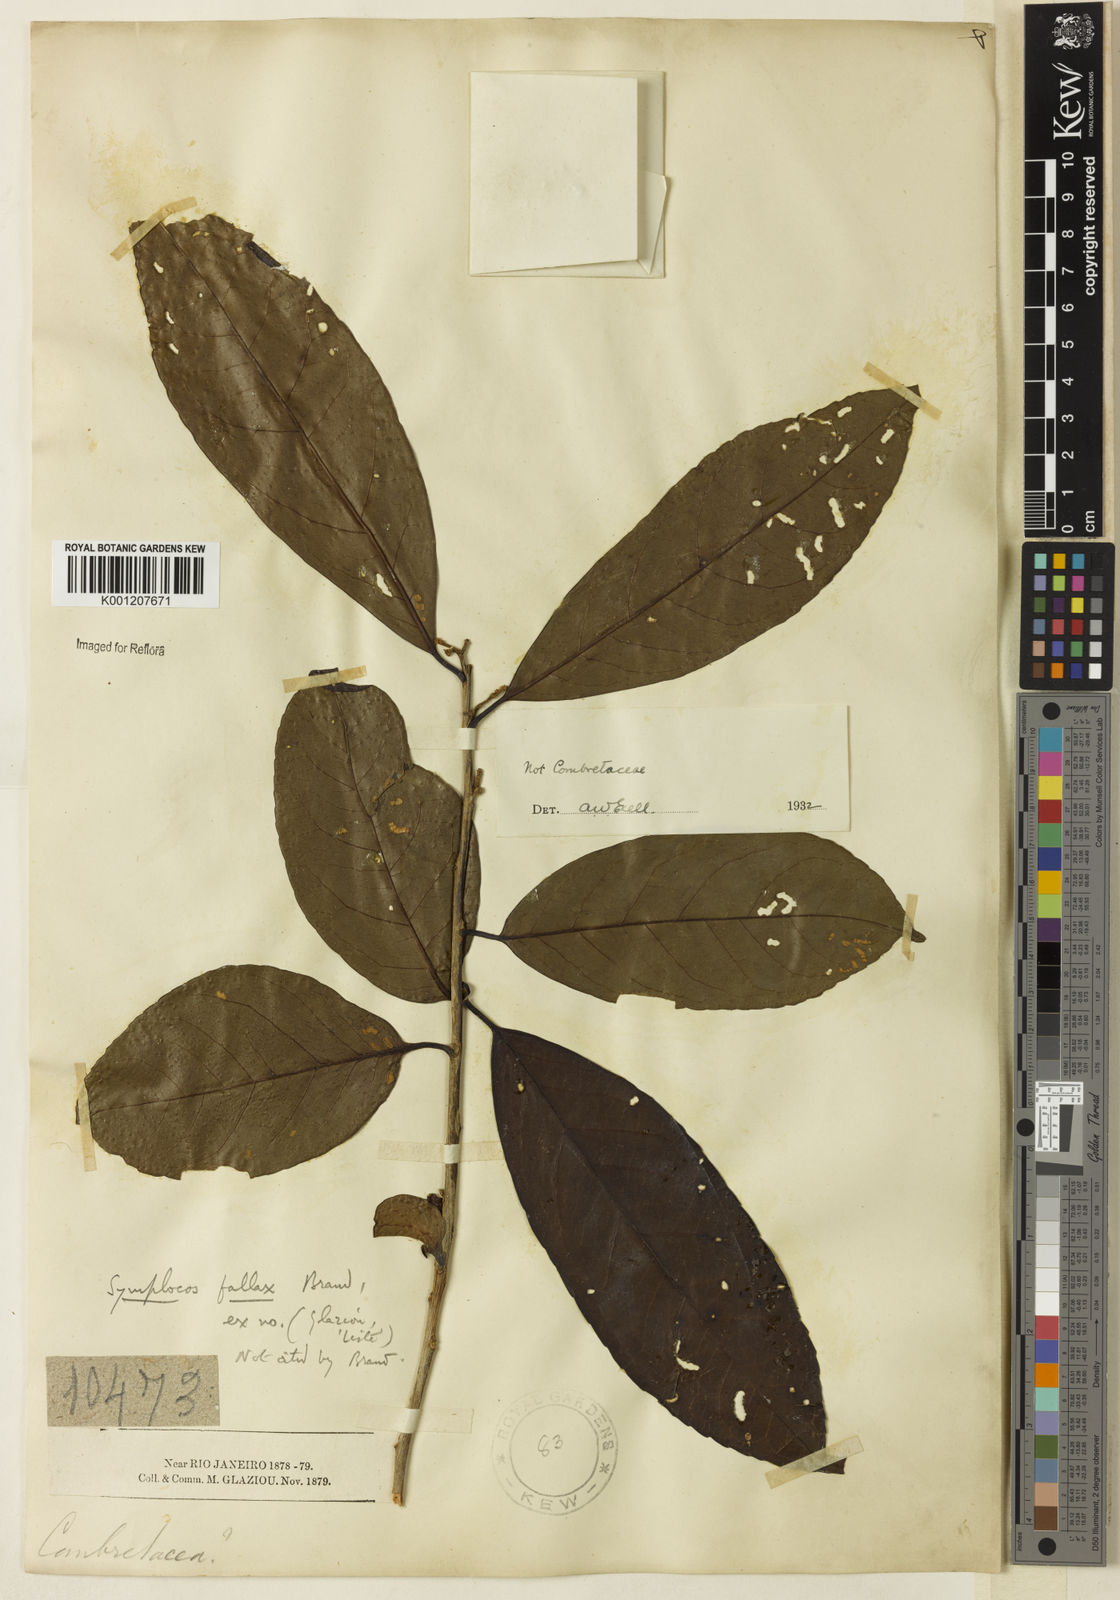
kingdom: Plantae
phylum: Tracheophyta
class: Magnoliopsida
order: Ericales
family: Symplocaceae
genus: Symplocos
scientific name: Symplocos pycnobotrya
